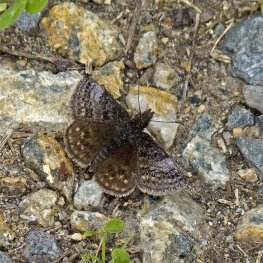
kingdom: Animalia
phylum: Arthropoda
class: Insecta
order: Lepidoptera
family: Hesperiidae
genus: Erynnis
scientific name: Erynnis icelus
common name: Dreamy Duskywing
